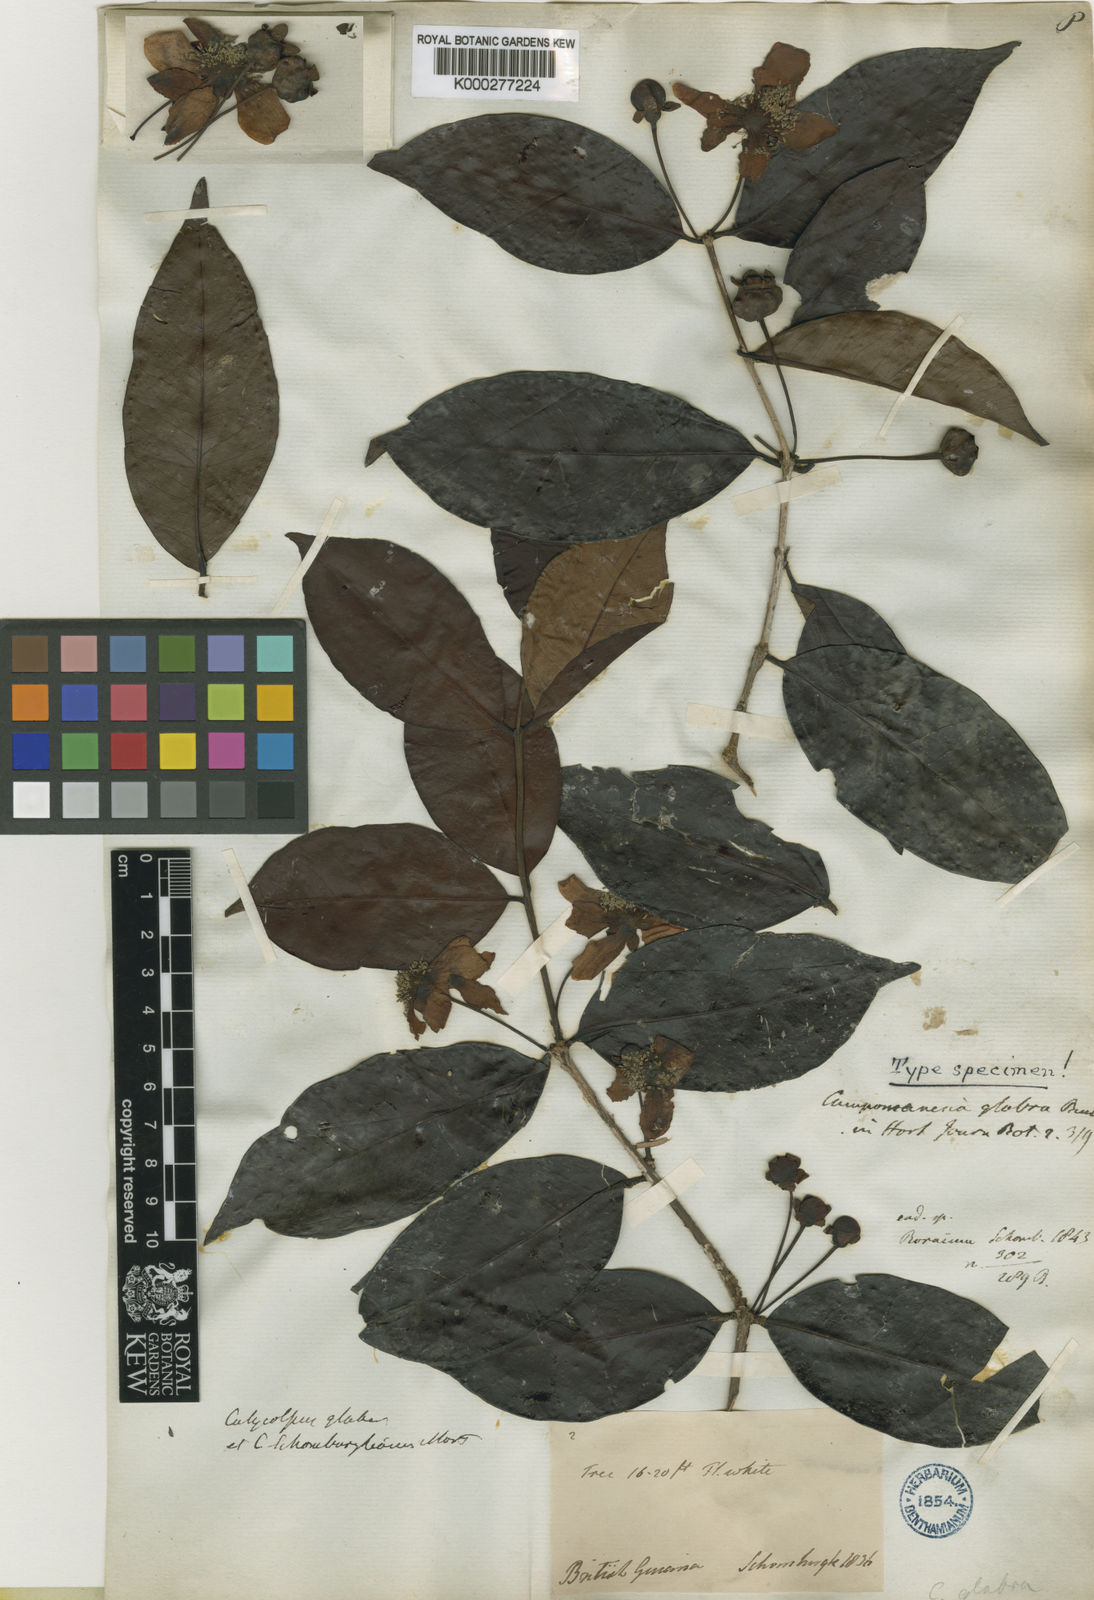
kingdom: Plantae
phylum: Tracheophyta
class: Magnoliopsida
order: Myrtales
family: Myrtaceae
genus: Calycolpus
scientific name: Calycolpus goetheanus
